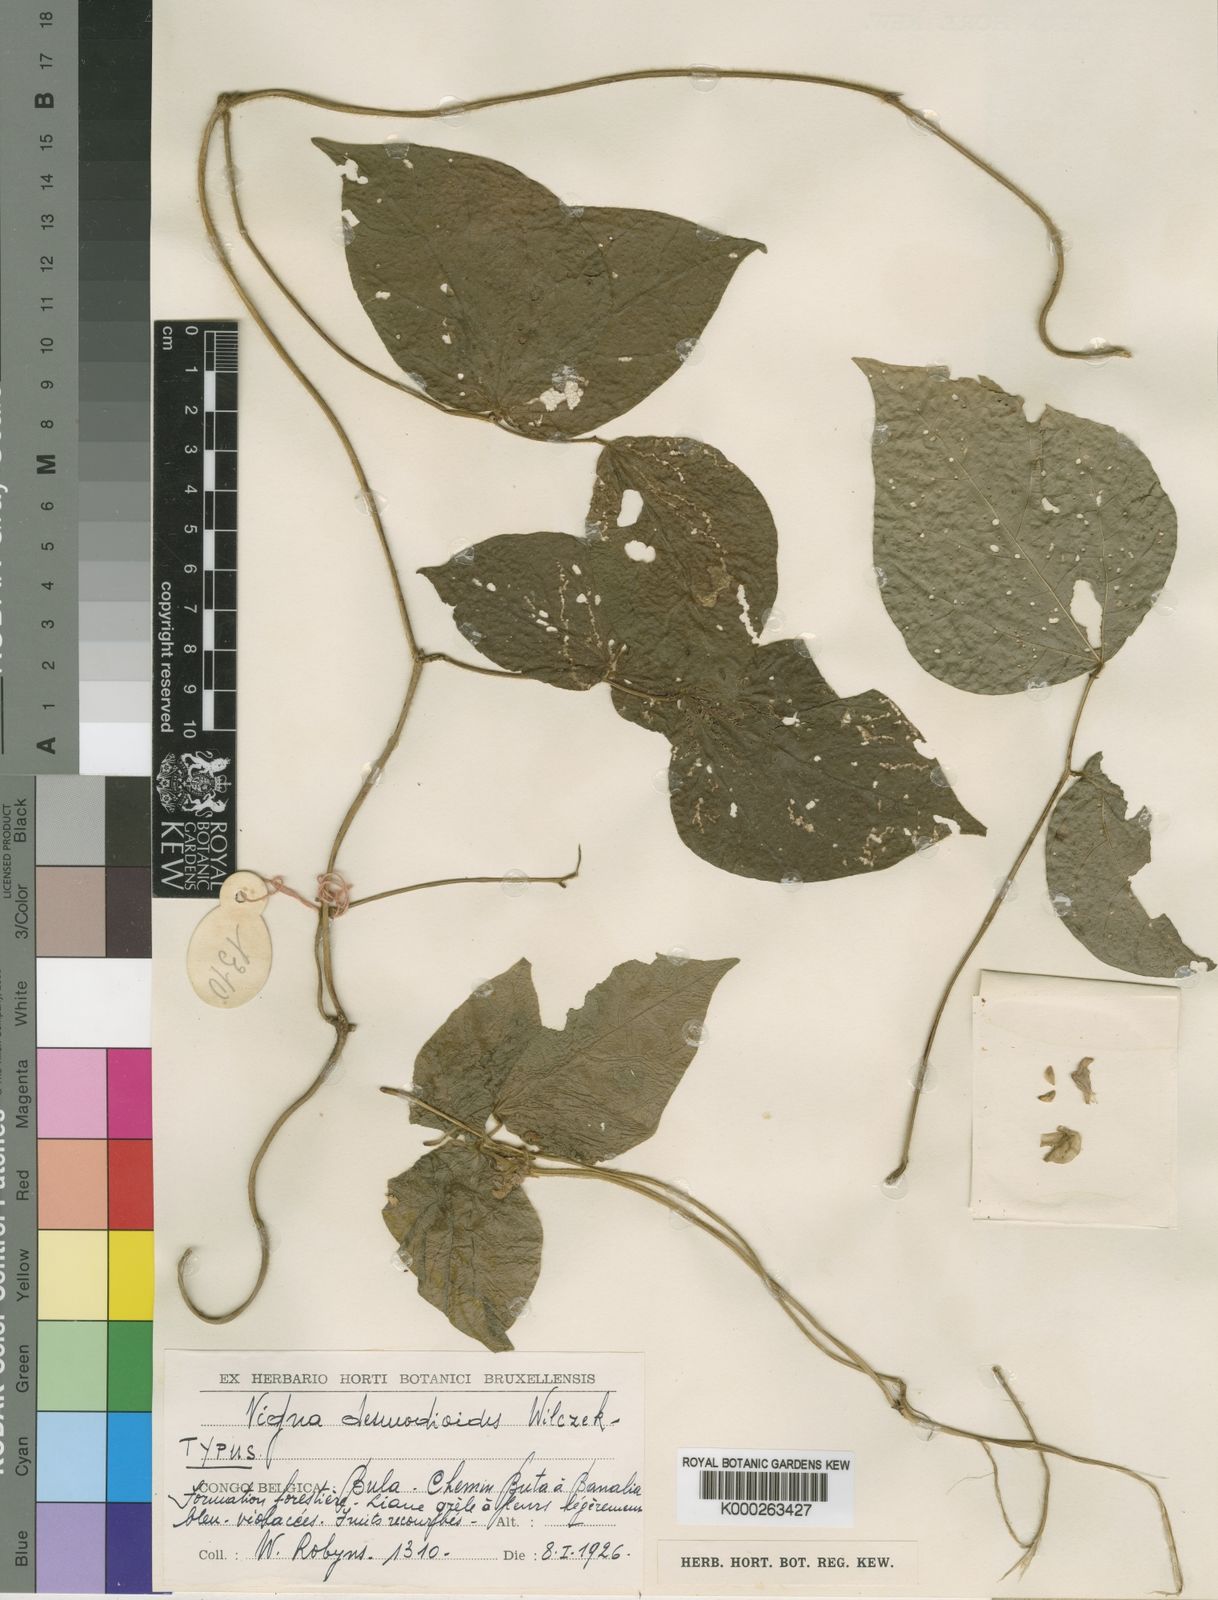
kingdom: Plantae
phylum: Tracheophyta
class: Magnoliopsida
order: Fabales
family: Fabaceae
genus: Vigna
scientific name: Vigna
